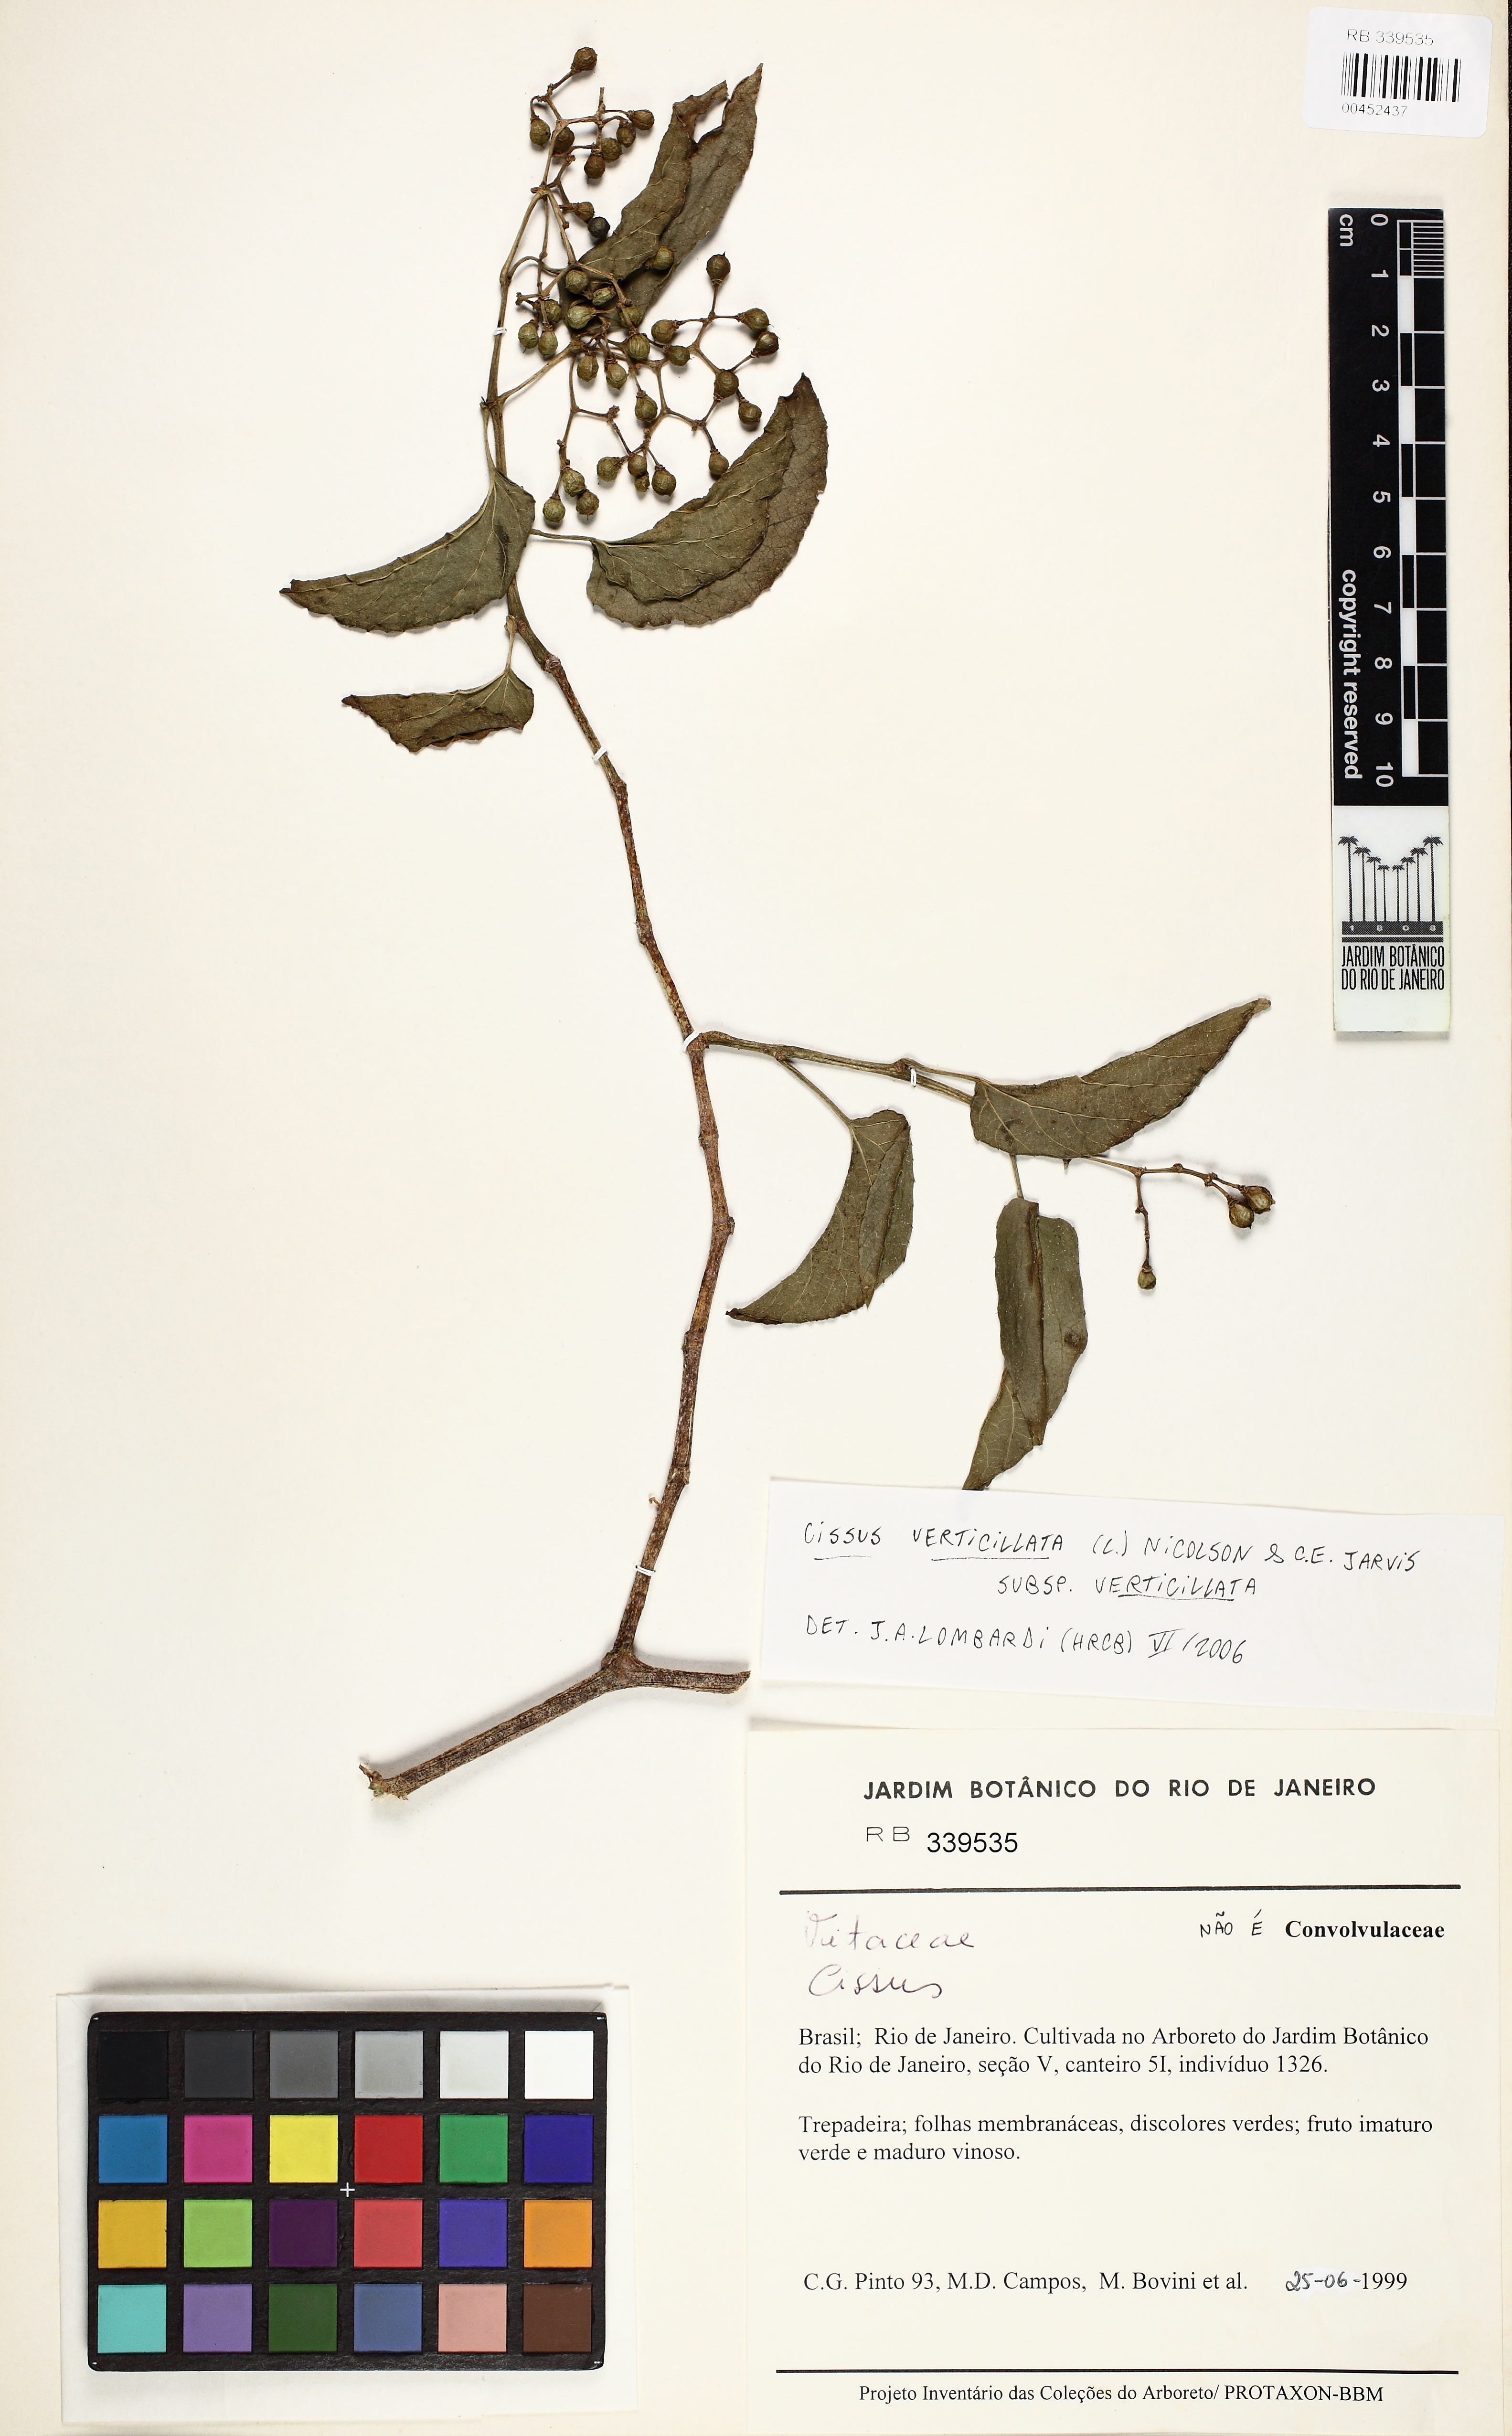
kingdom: Plantae
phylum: Tracheophyta
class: Magnoliopsida
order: Vitales
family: Vitaceae
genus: Cissus
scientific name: Cissus verticillata
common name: Princess vine
